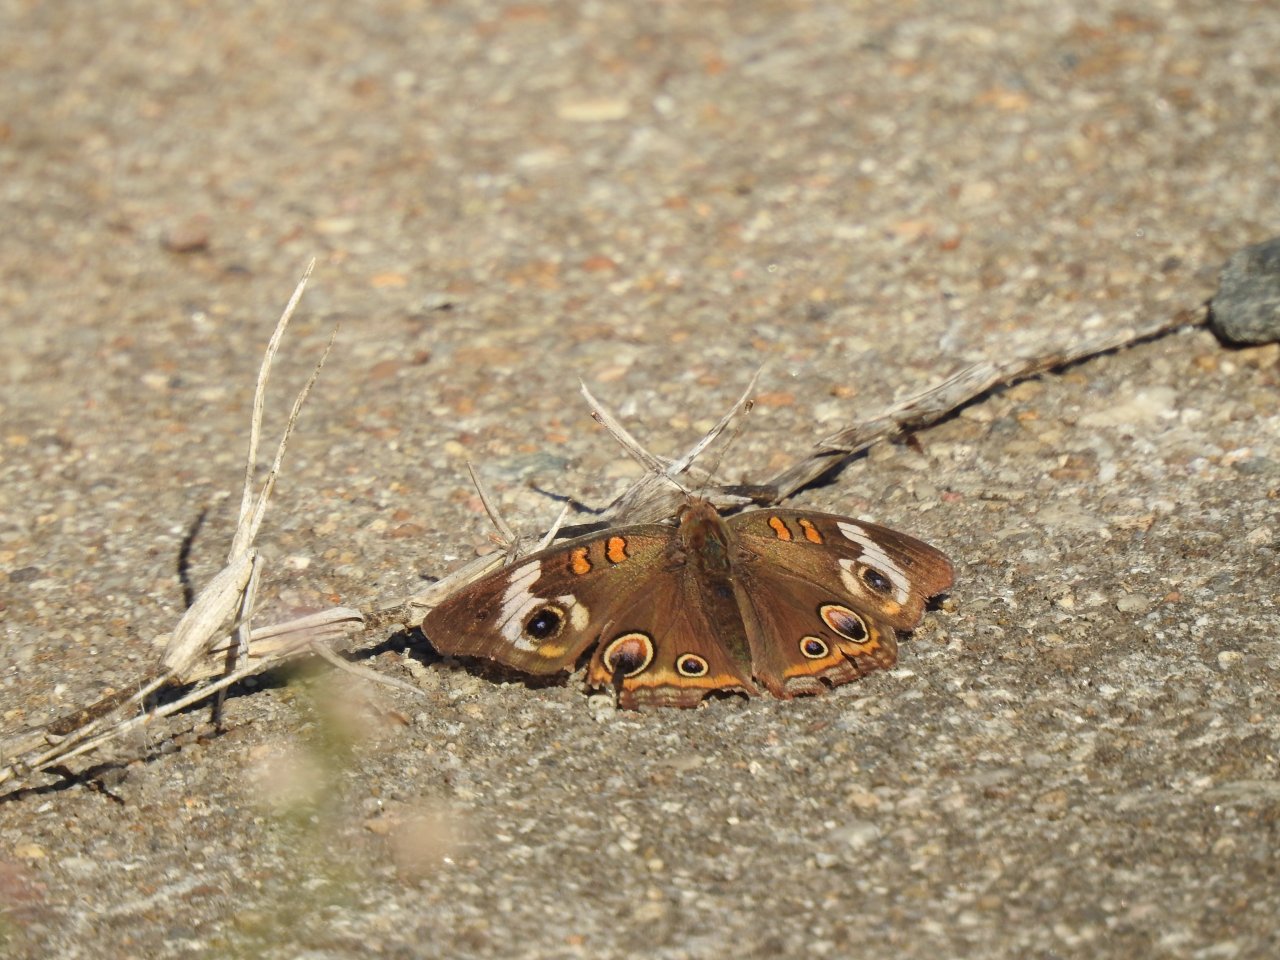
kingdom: Animalia
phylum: Arthropoda
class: Insecta
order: Lepidoptera
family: Nymphalidae
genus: Junonia
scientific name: Junonia coenia
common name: Common Buckeye
